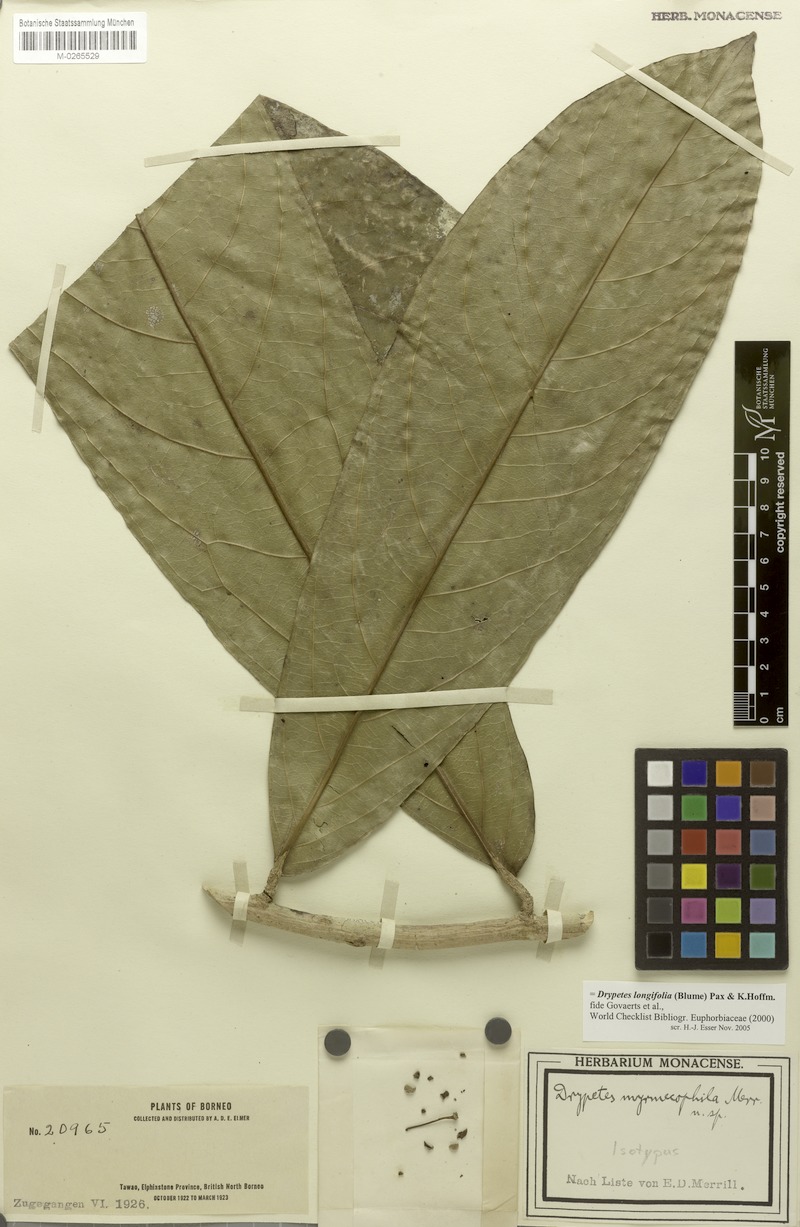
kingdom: Plantae
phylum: Tracheophyta
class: Magnoliopsida
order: Malpighiales
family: Putranjivaceae
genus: Drypetes
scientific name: Drypetes longifolia
